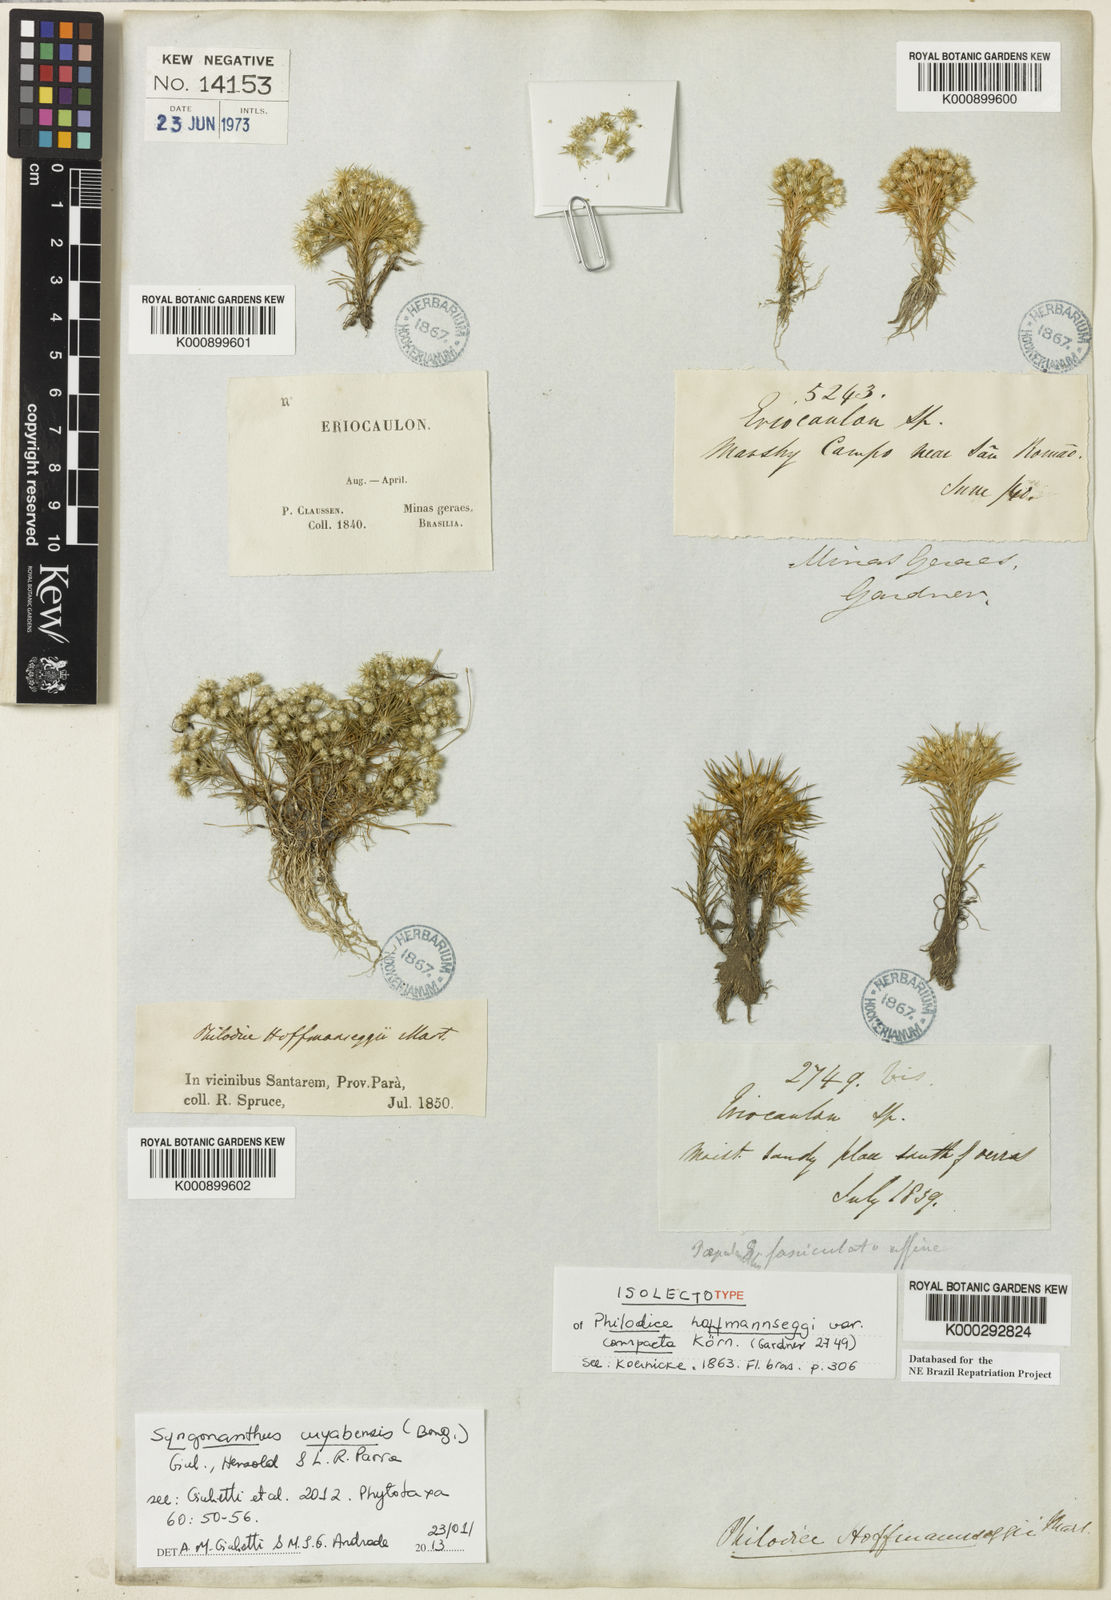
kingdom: Plantae
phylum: Tracheophyta
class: Liliopsida
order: Poales
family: Eriocaulaceae
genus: Syngonanthus
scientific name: Syngonanthus cuyabensis
